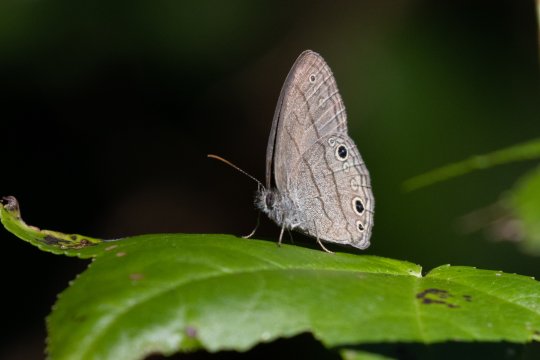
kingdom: Animalia
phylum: Arthropoda
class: Insecta
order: Lepidoptera
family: Nymphalidae
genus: Hermeuptychia
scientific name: Hermeuptychia hermes
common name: Carolina Satyr
